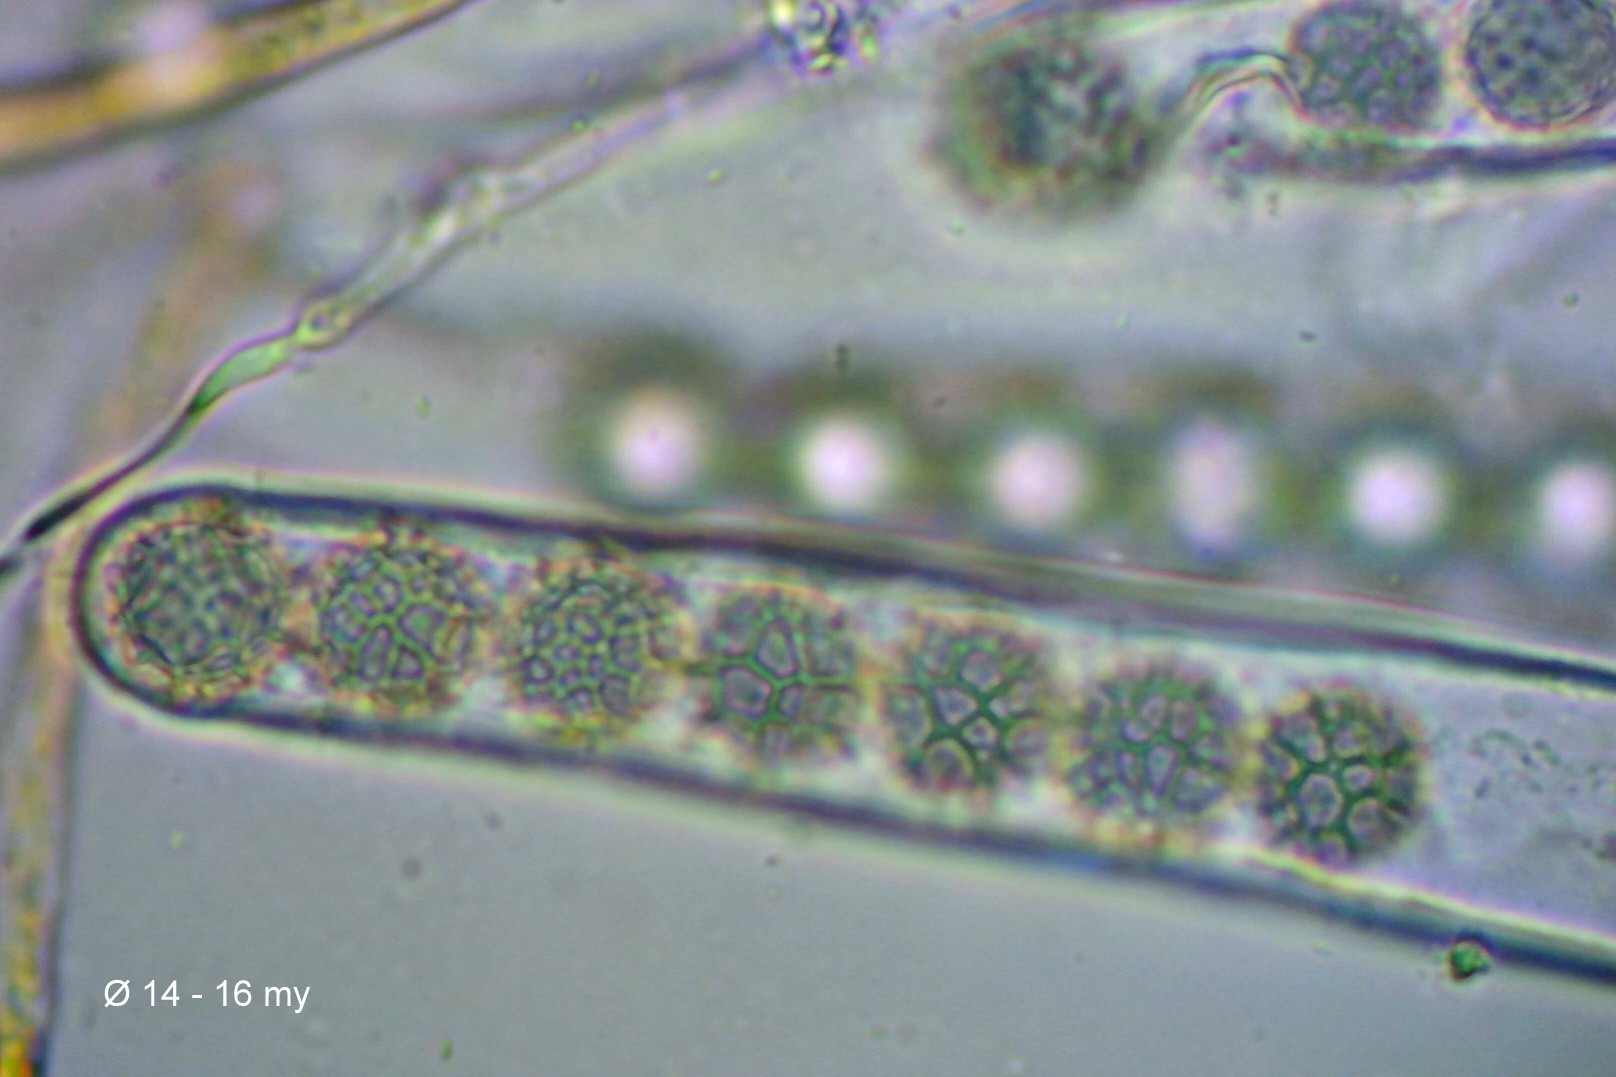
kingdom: Fungi
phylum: Ascomycota
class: Pezizomycetes
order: Pezizales
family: Pyronemataceae
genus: Lamprospora
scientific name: Lamprospora miniata
